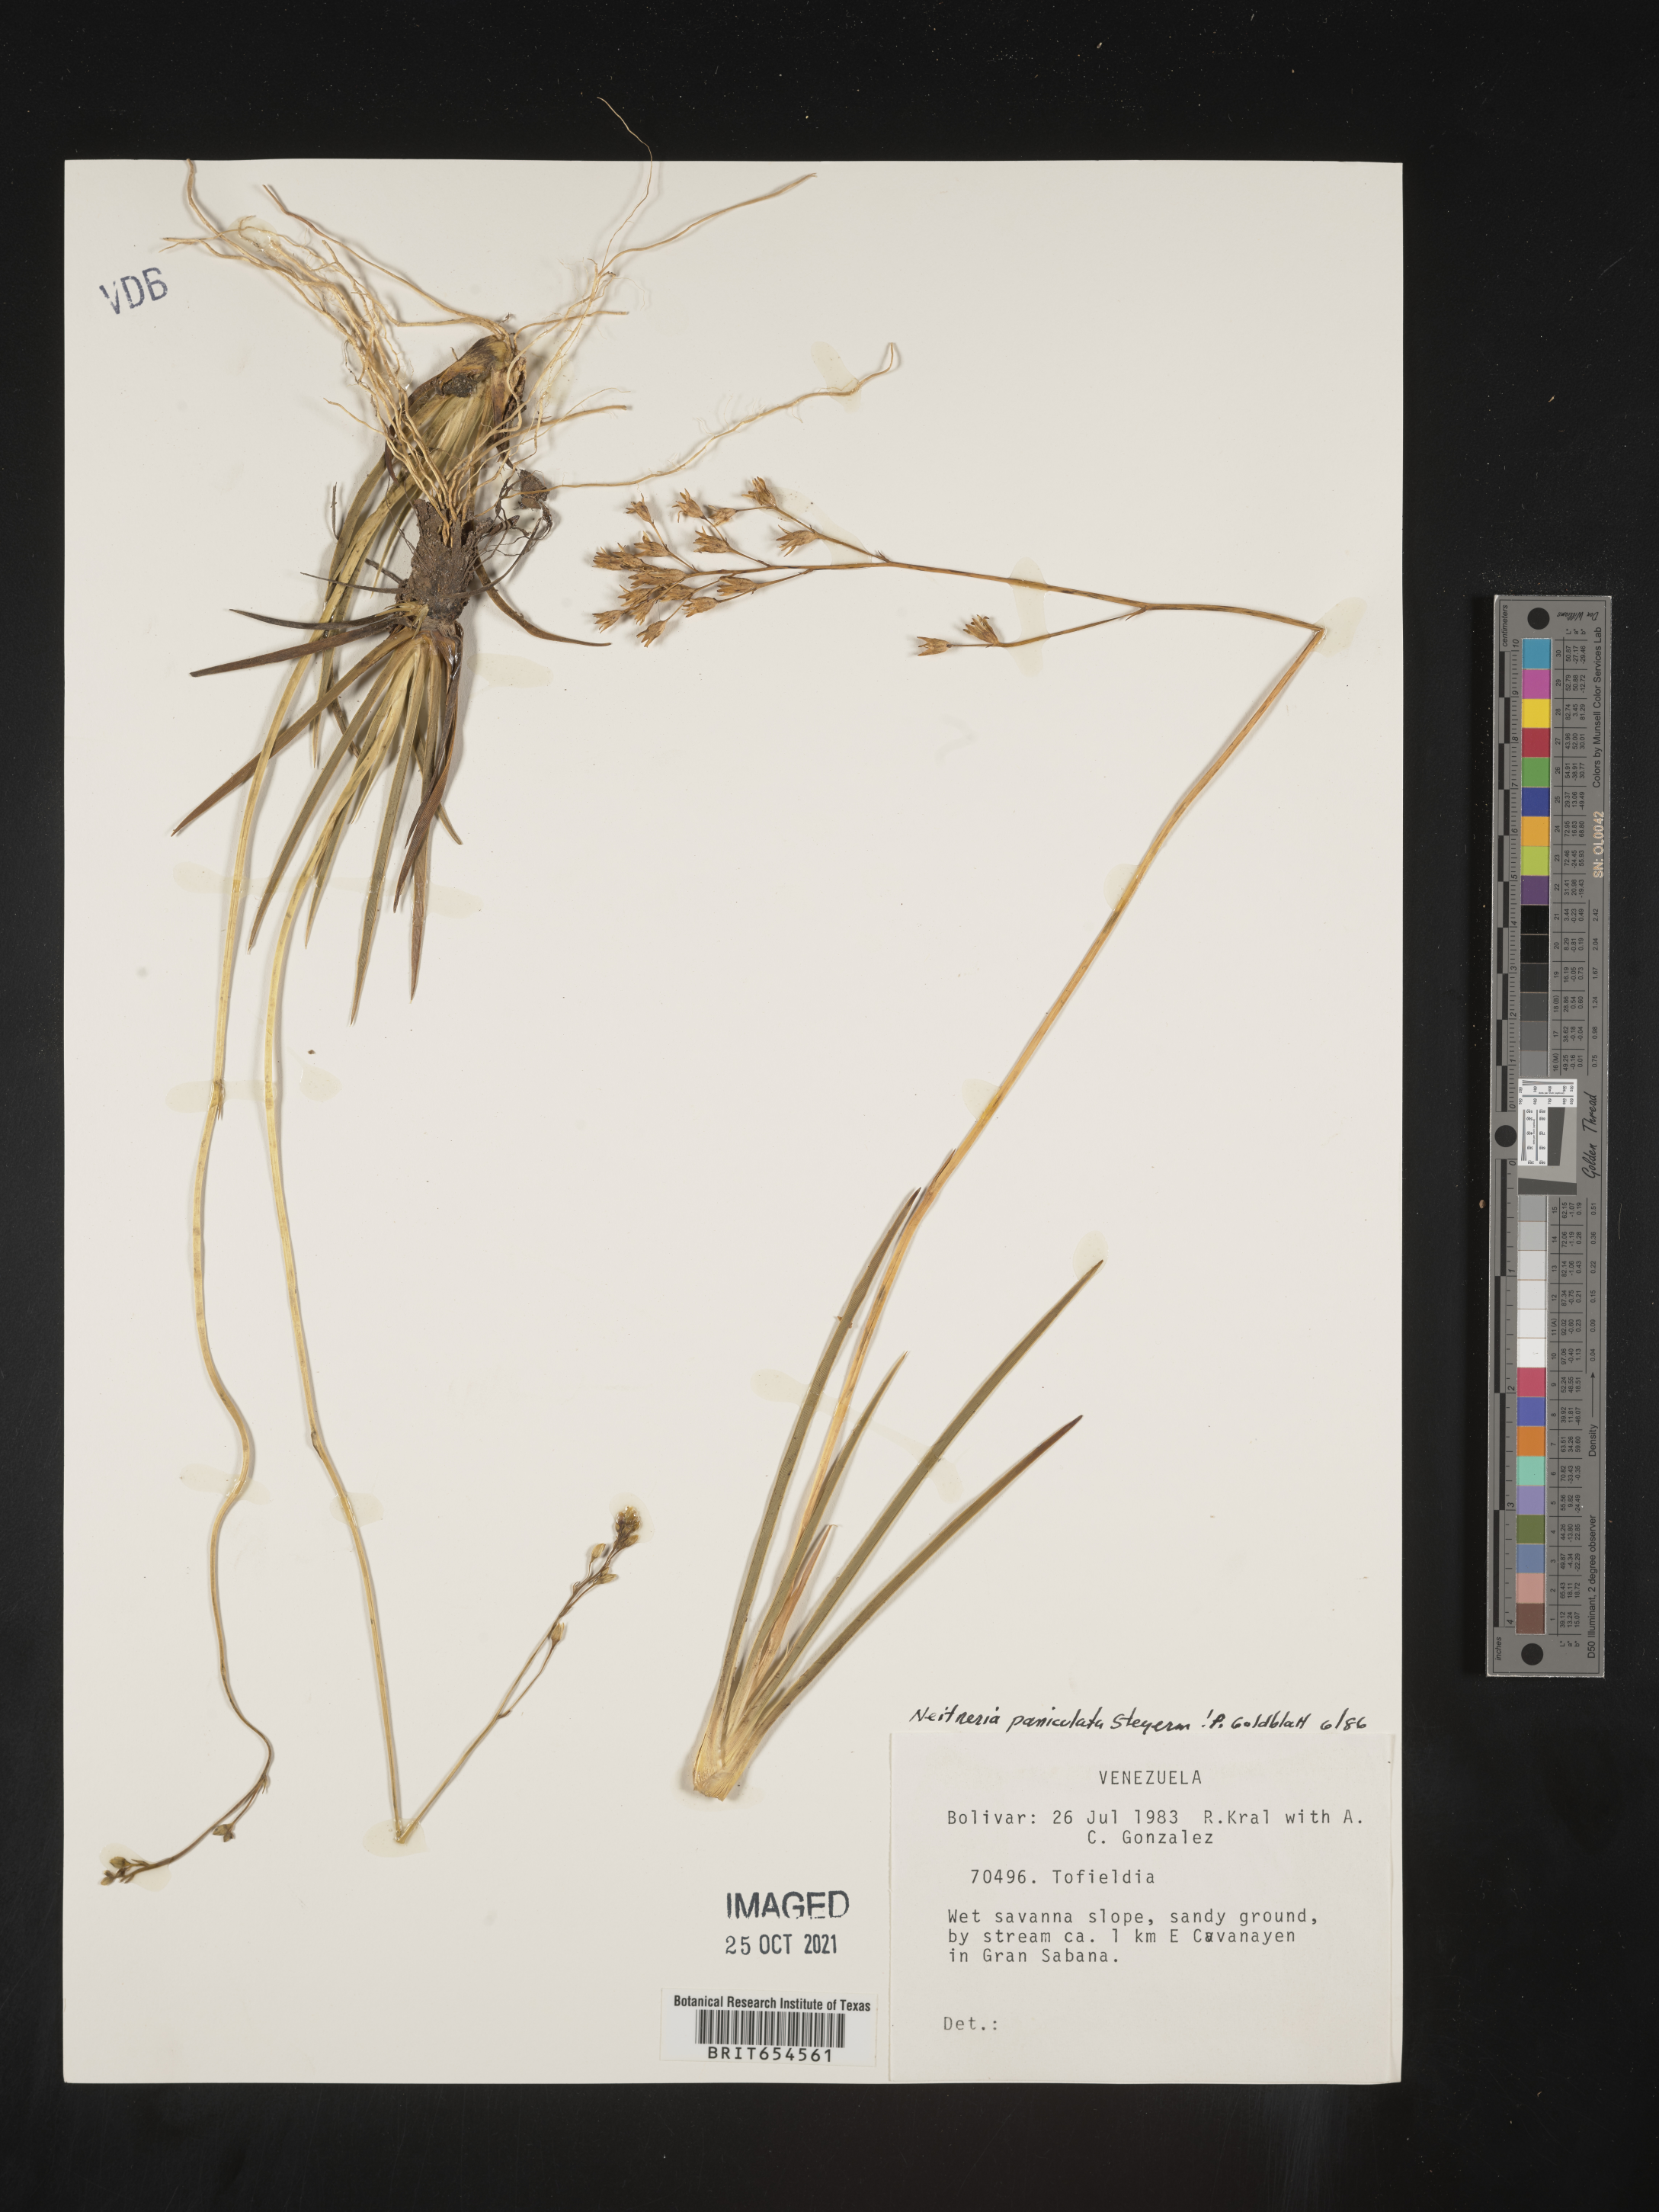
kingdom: Plantae
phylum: Tracheophyta
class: Liliopsida
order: Dioscoreales
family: Nartheciaceae
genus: Nietneria
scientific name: Nietneria paniculata
